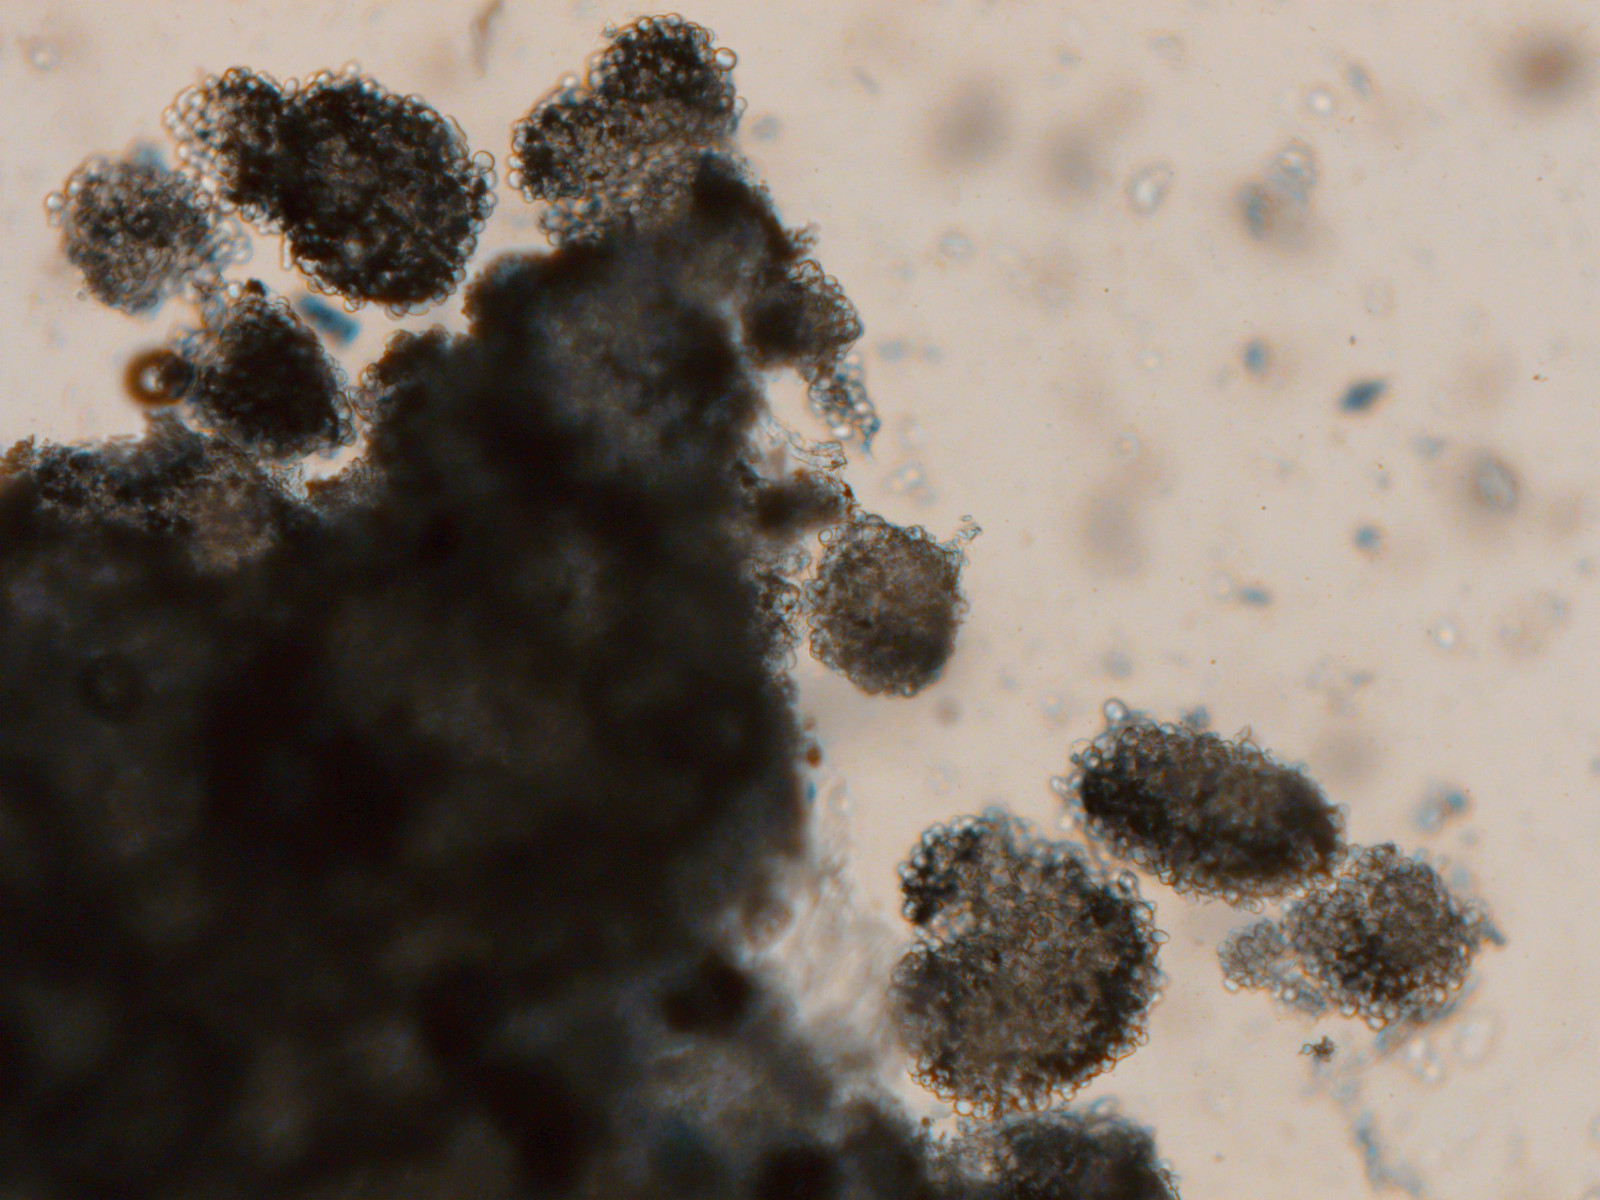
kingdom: Fungi
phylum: Basidiomycota
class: Agaricomycetes
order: Corticiales
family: Corticiaceae
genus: Erythricium
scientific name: Erythricium aurantiacum
